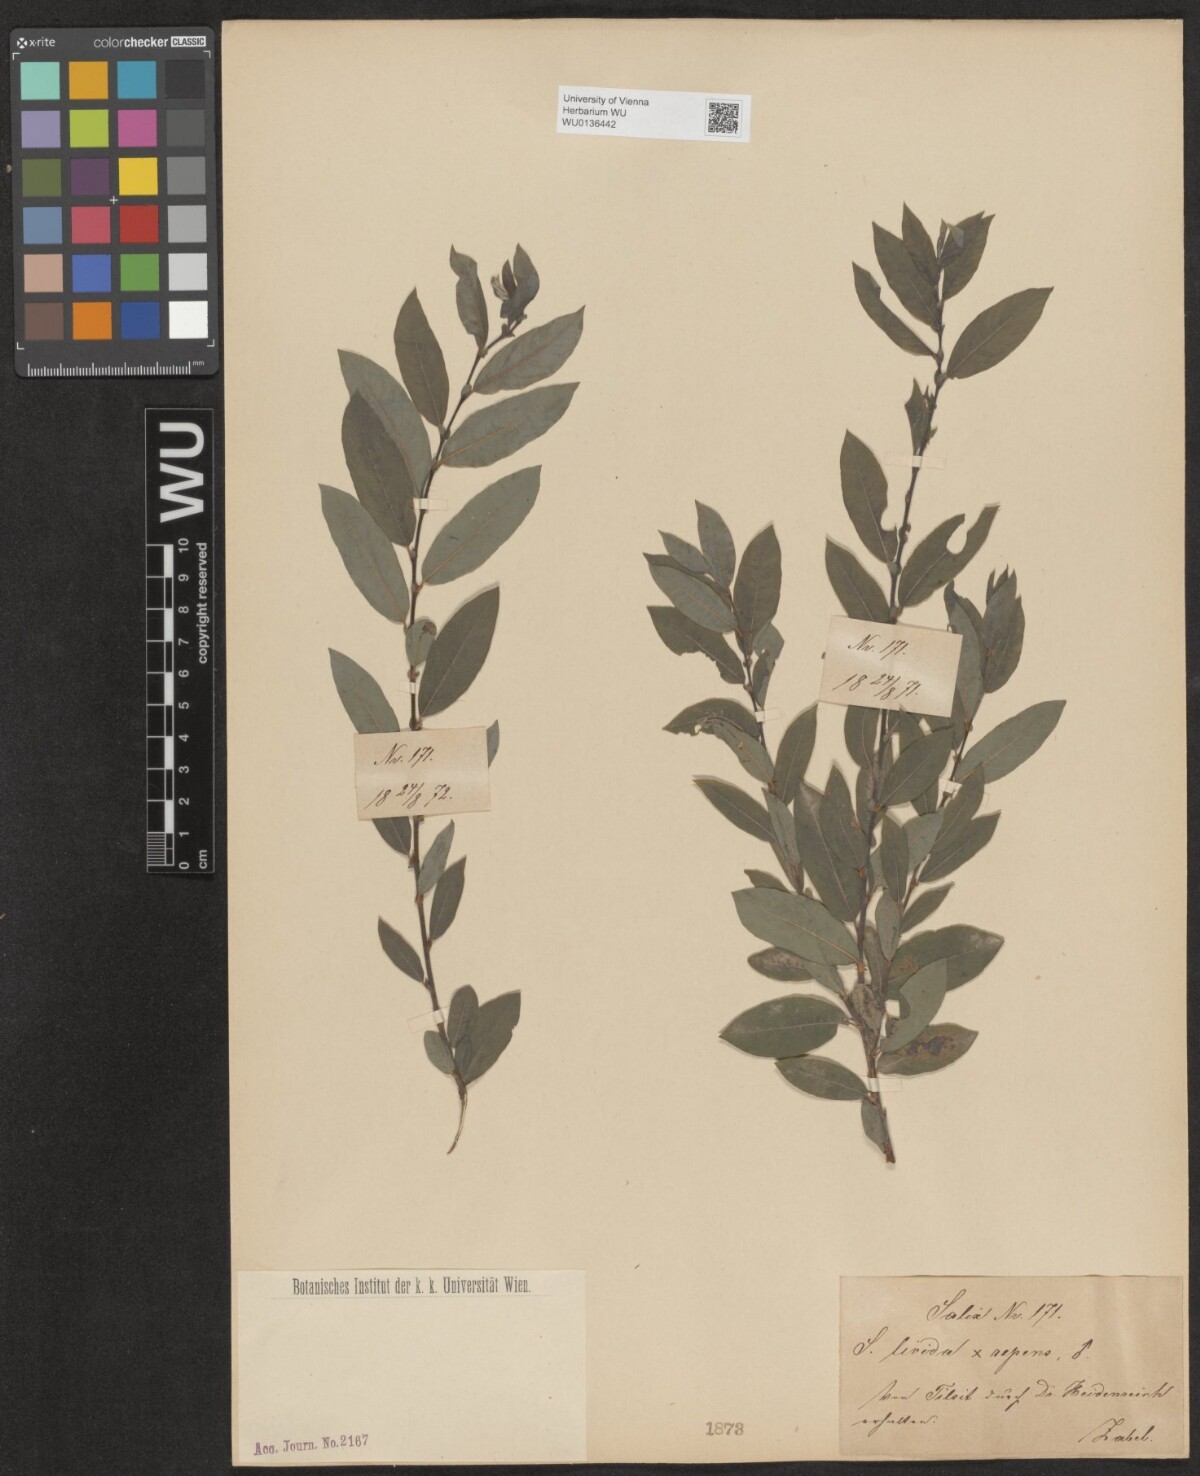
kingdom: Plantae
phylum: Tracheophyta
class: Magnoliopsida
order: Malpighiales
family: Salicaceae
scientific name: Salicaceae
